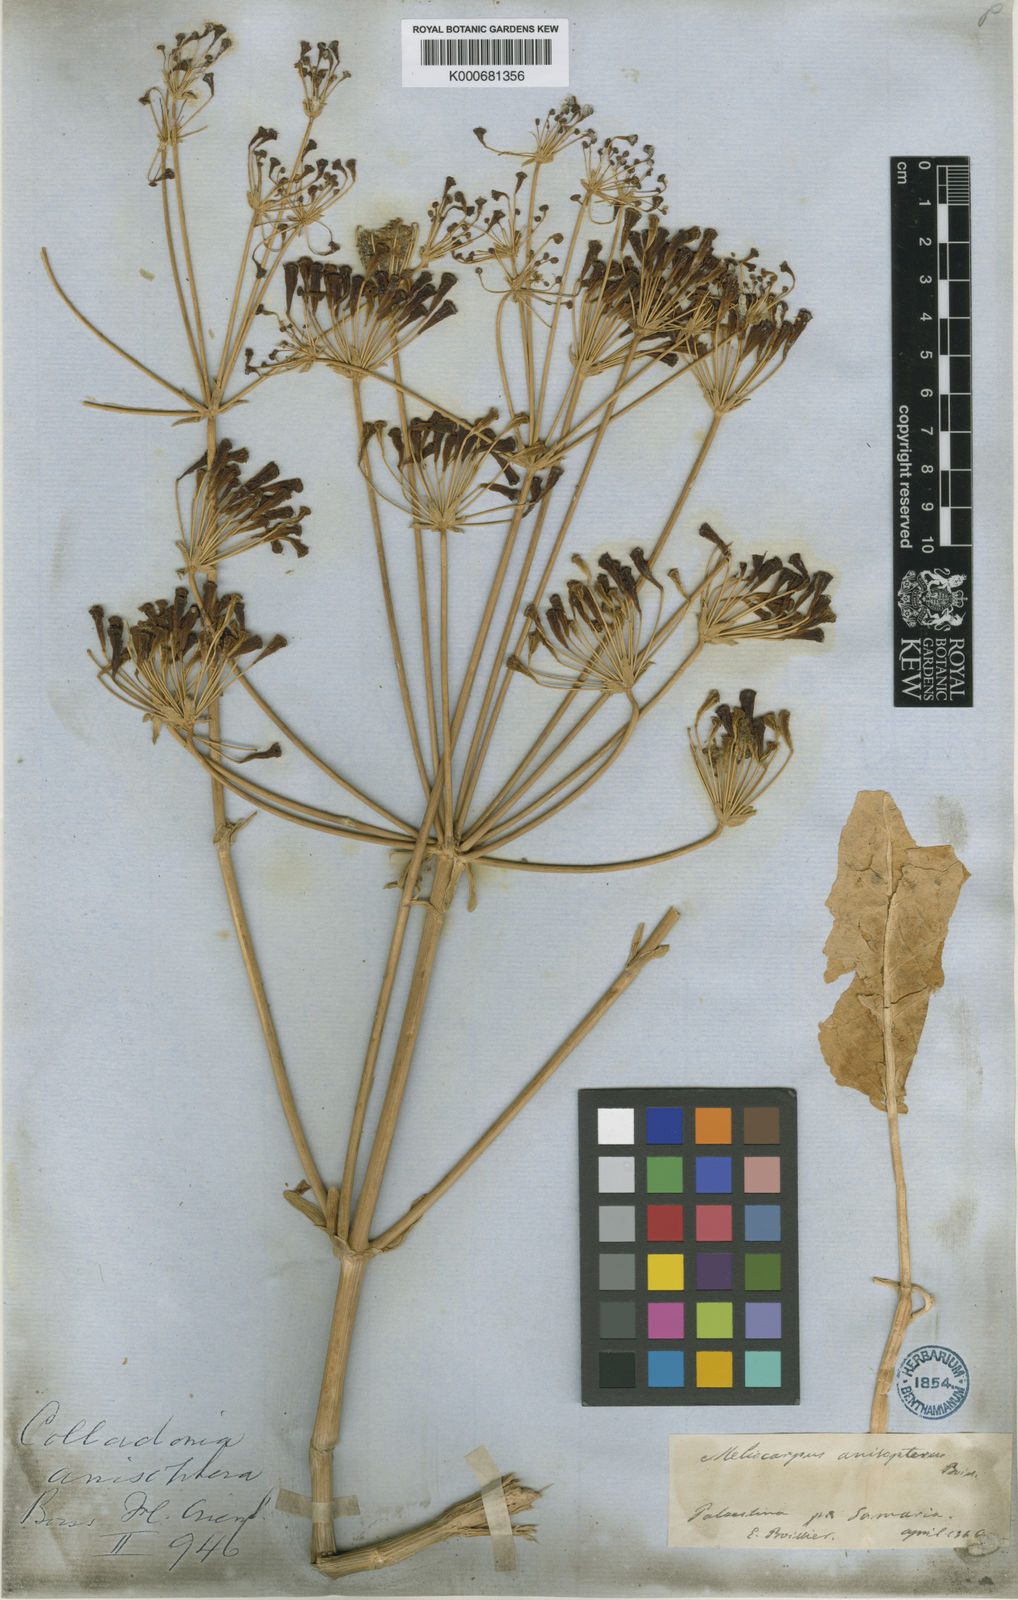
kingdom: Plantae
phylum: Tracheophyta
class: Magnoliopsida
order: Apiales
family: Apiaceae
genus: Heptaptera
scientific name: Heptaptera
